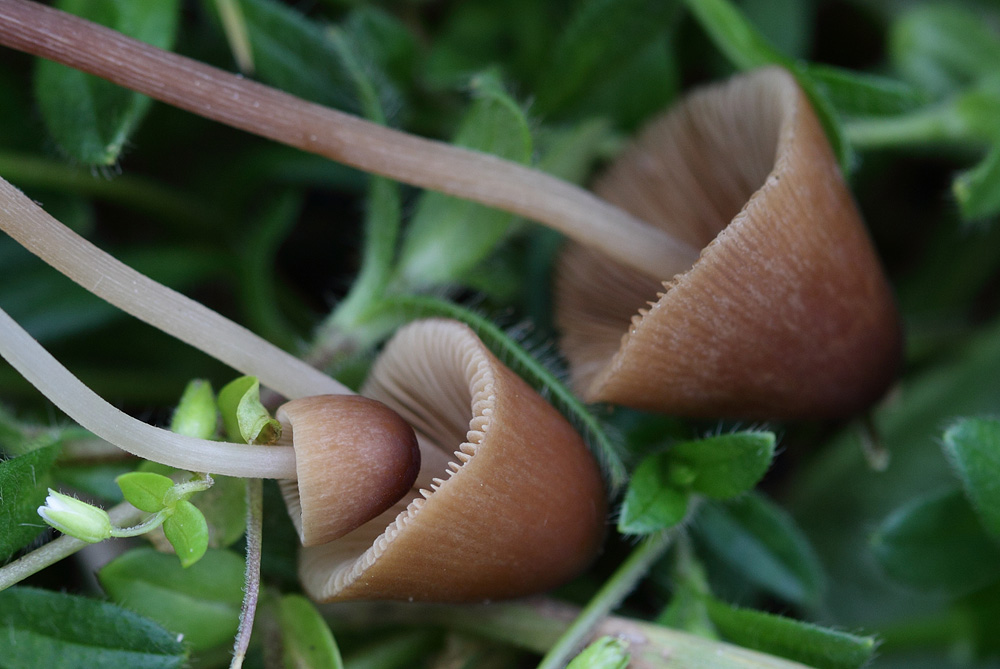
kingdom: Fungi
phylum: Basidiomycota
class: Agaricomycetes
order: Agaricales
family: Bolbitiaceae
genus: Conocybe
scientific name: Conocybe brunneidisca
